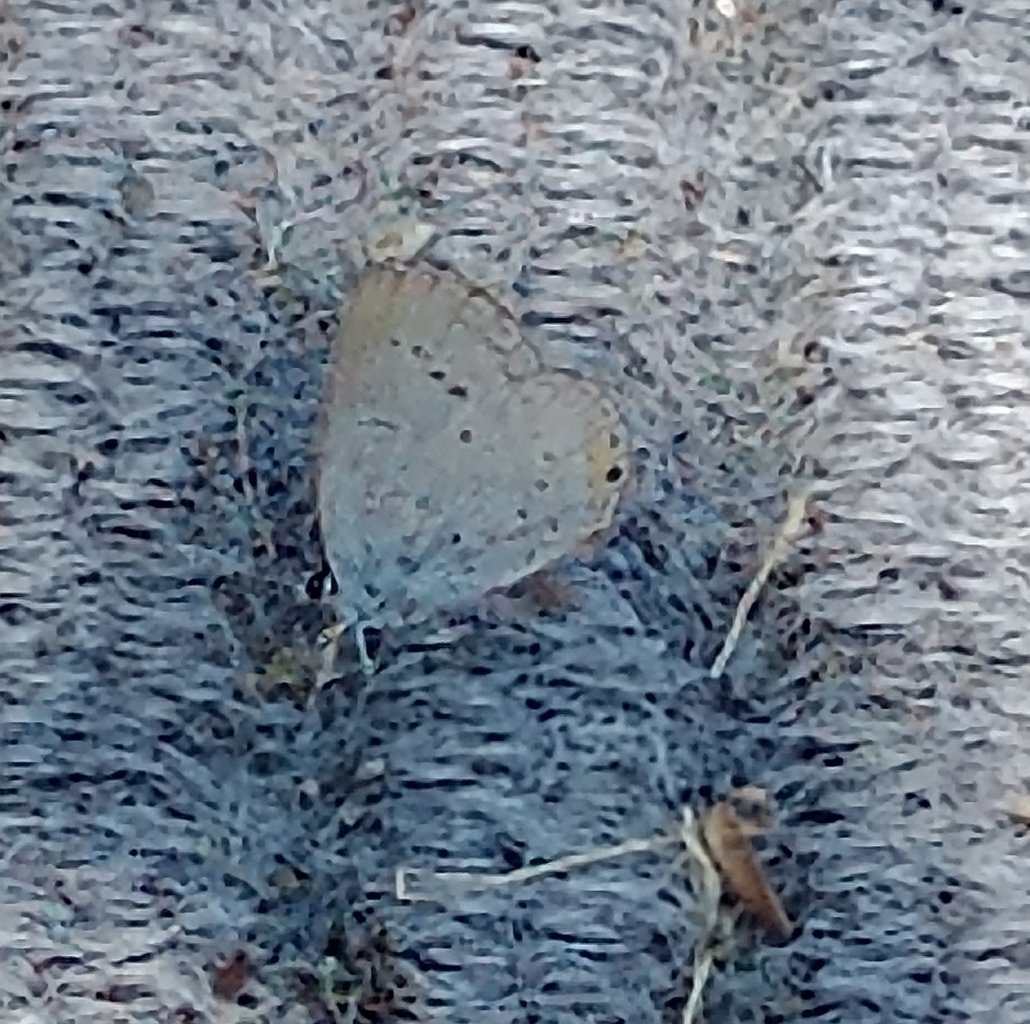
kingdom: Animalia
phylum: Arthropoda
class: Insecta
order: Lepidoptera
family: Lycaenidae
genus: Cyaniris
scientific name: Cyaniris neglecta
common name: Summer Azure
